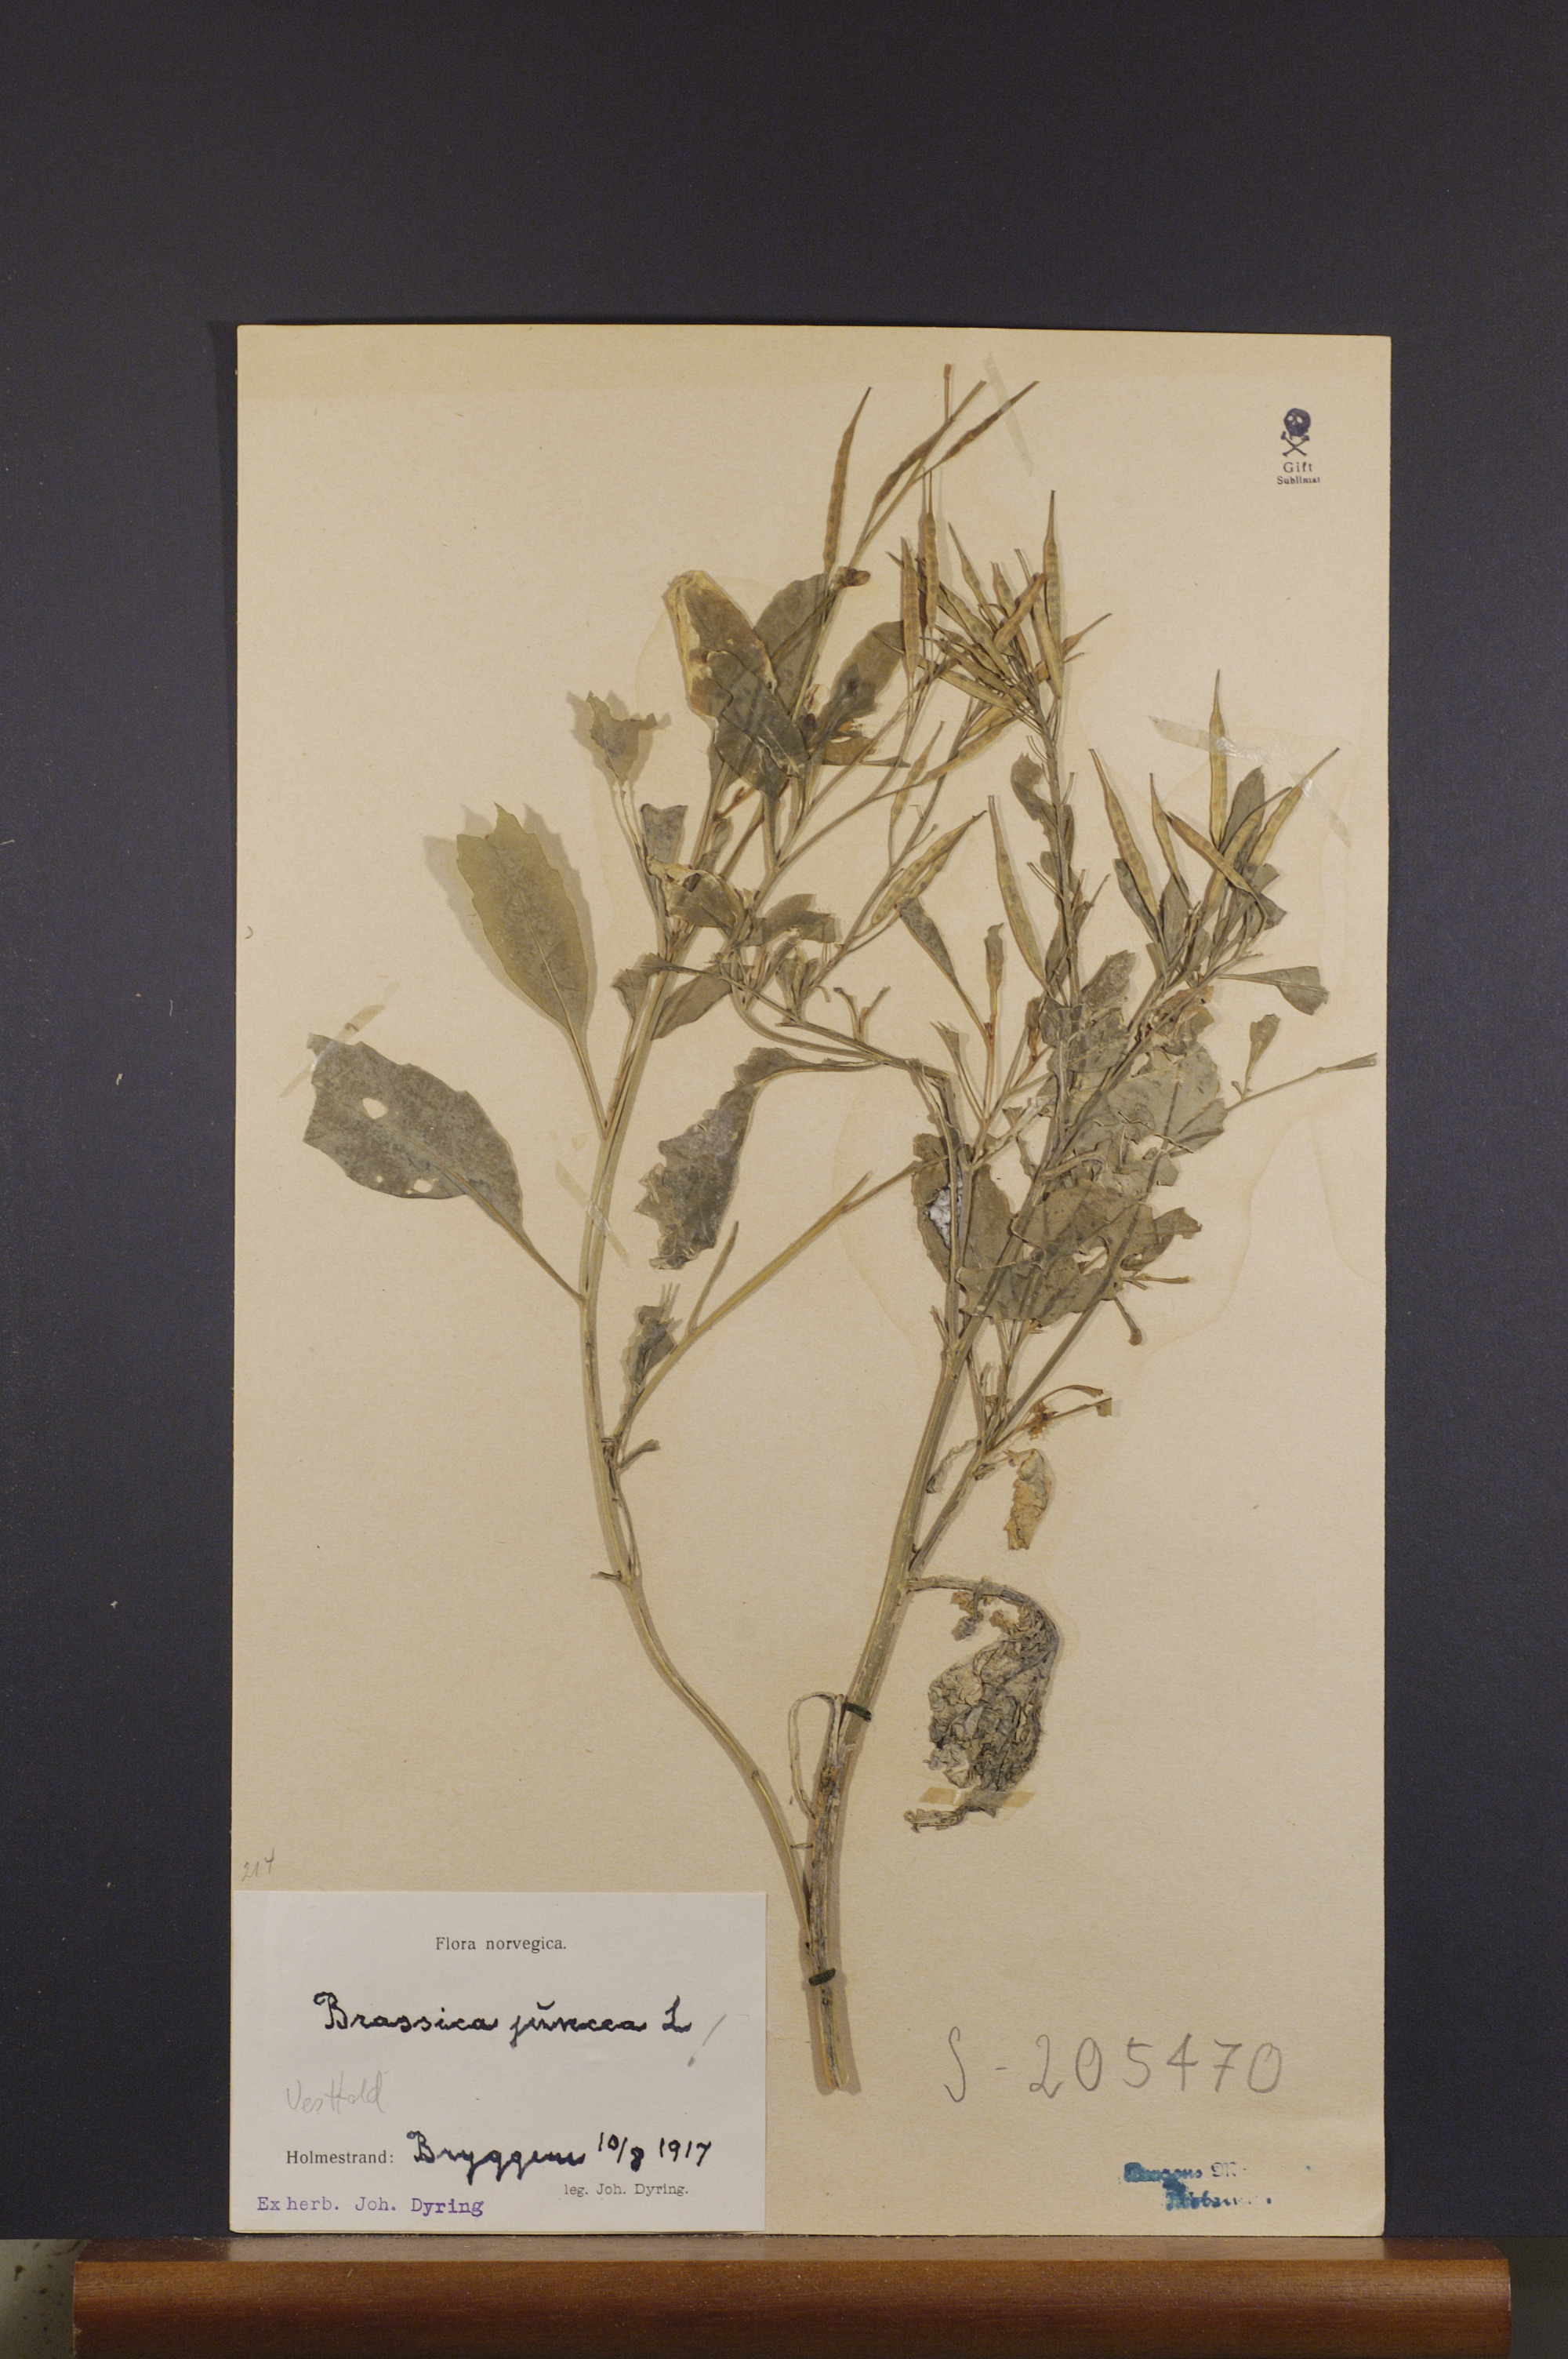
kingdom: Plantae
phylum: Tracheophyta
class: Magnoliopsida
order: Brassicales
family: Brassicaceae
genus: Brassica
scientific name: Brassica juncea
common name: Brown mustard
